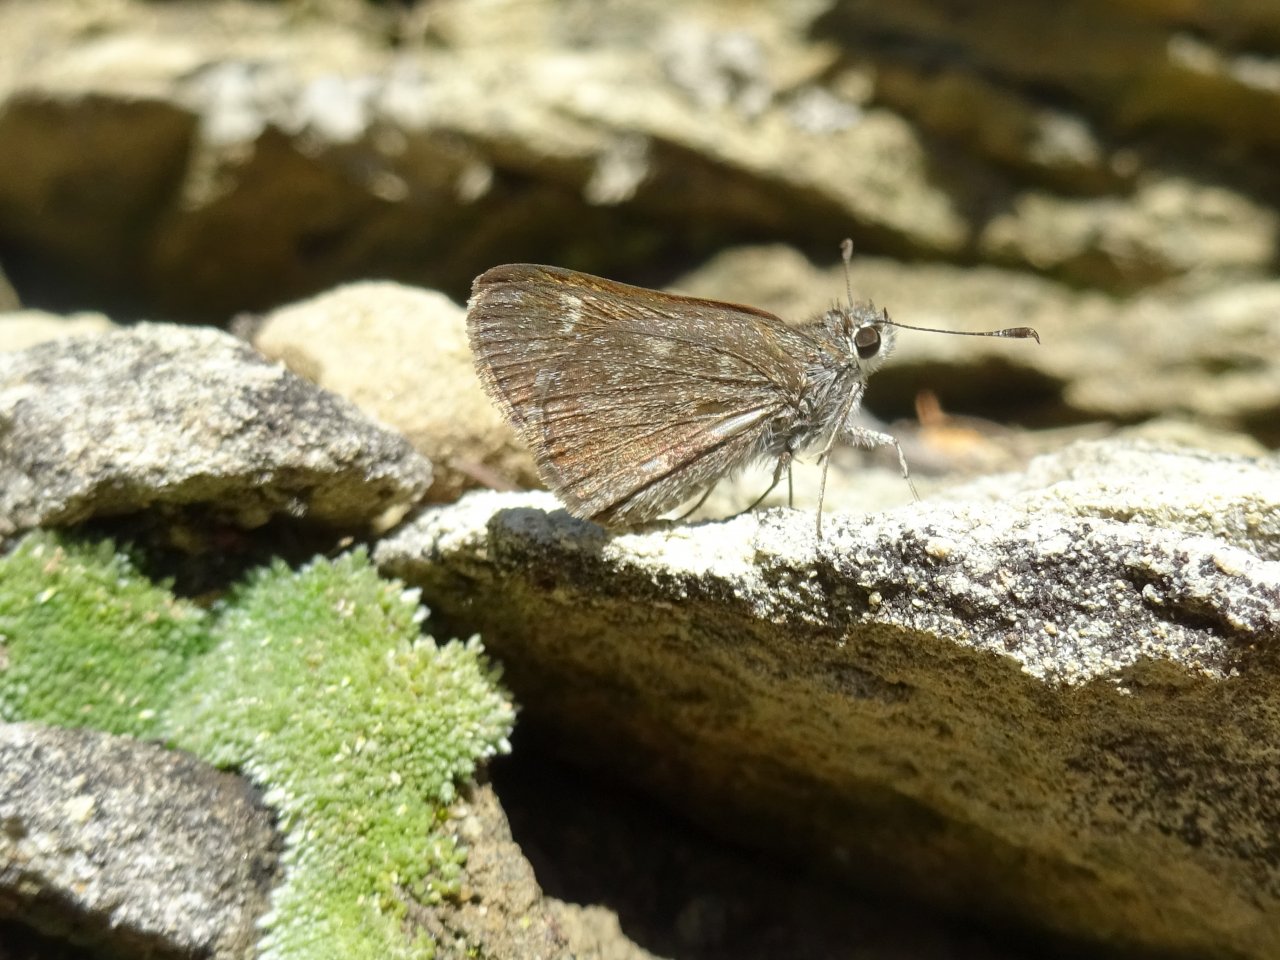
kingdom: Animalia
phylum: Arthropoda
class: Insecta
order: Lepidoptera
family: Hesperiidae
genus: Mastor
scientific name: Mastor aenus
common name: Bronze Roadside-Skipper
